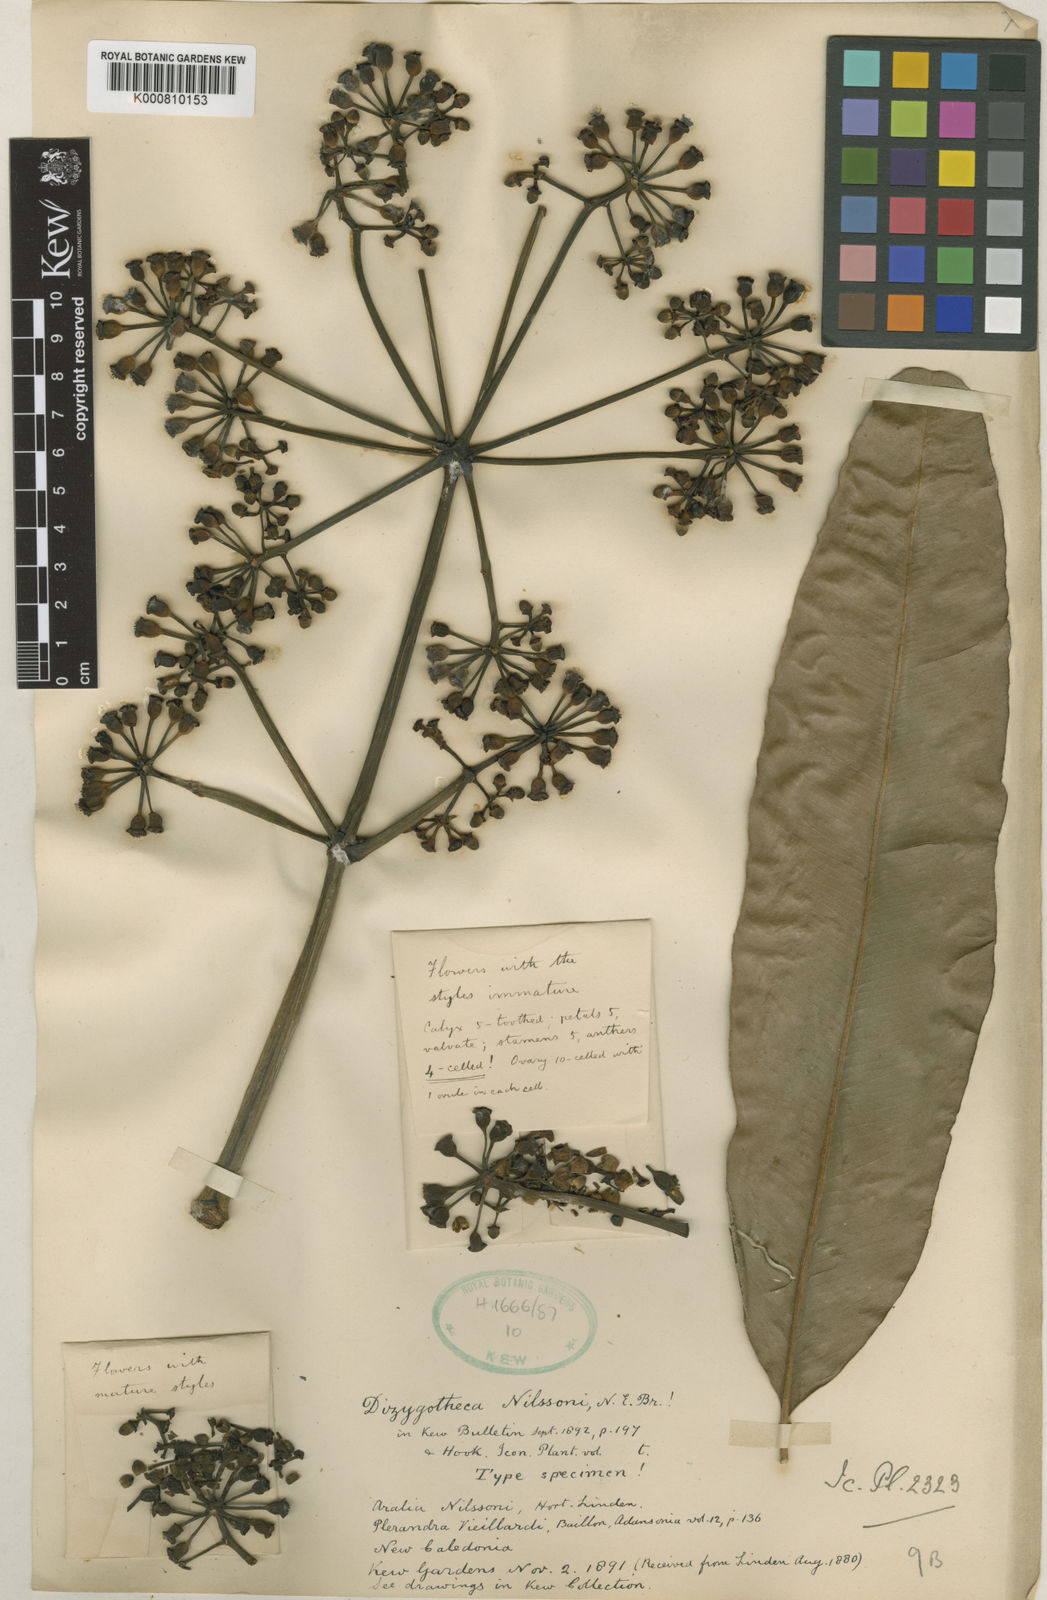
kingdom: Plantae
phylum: Tracheophyta
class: Magnoliopsida
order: Apiales
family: Araliaceae
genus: Plerandra
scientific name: Plerandra osyana
